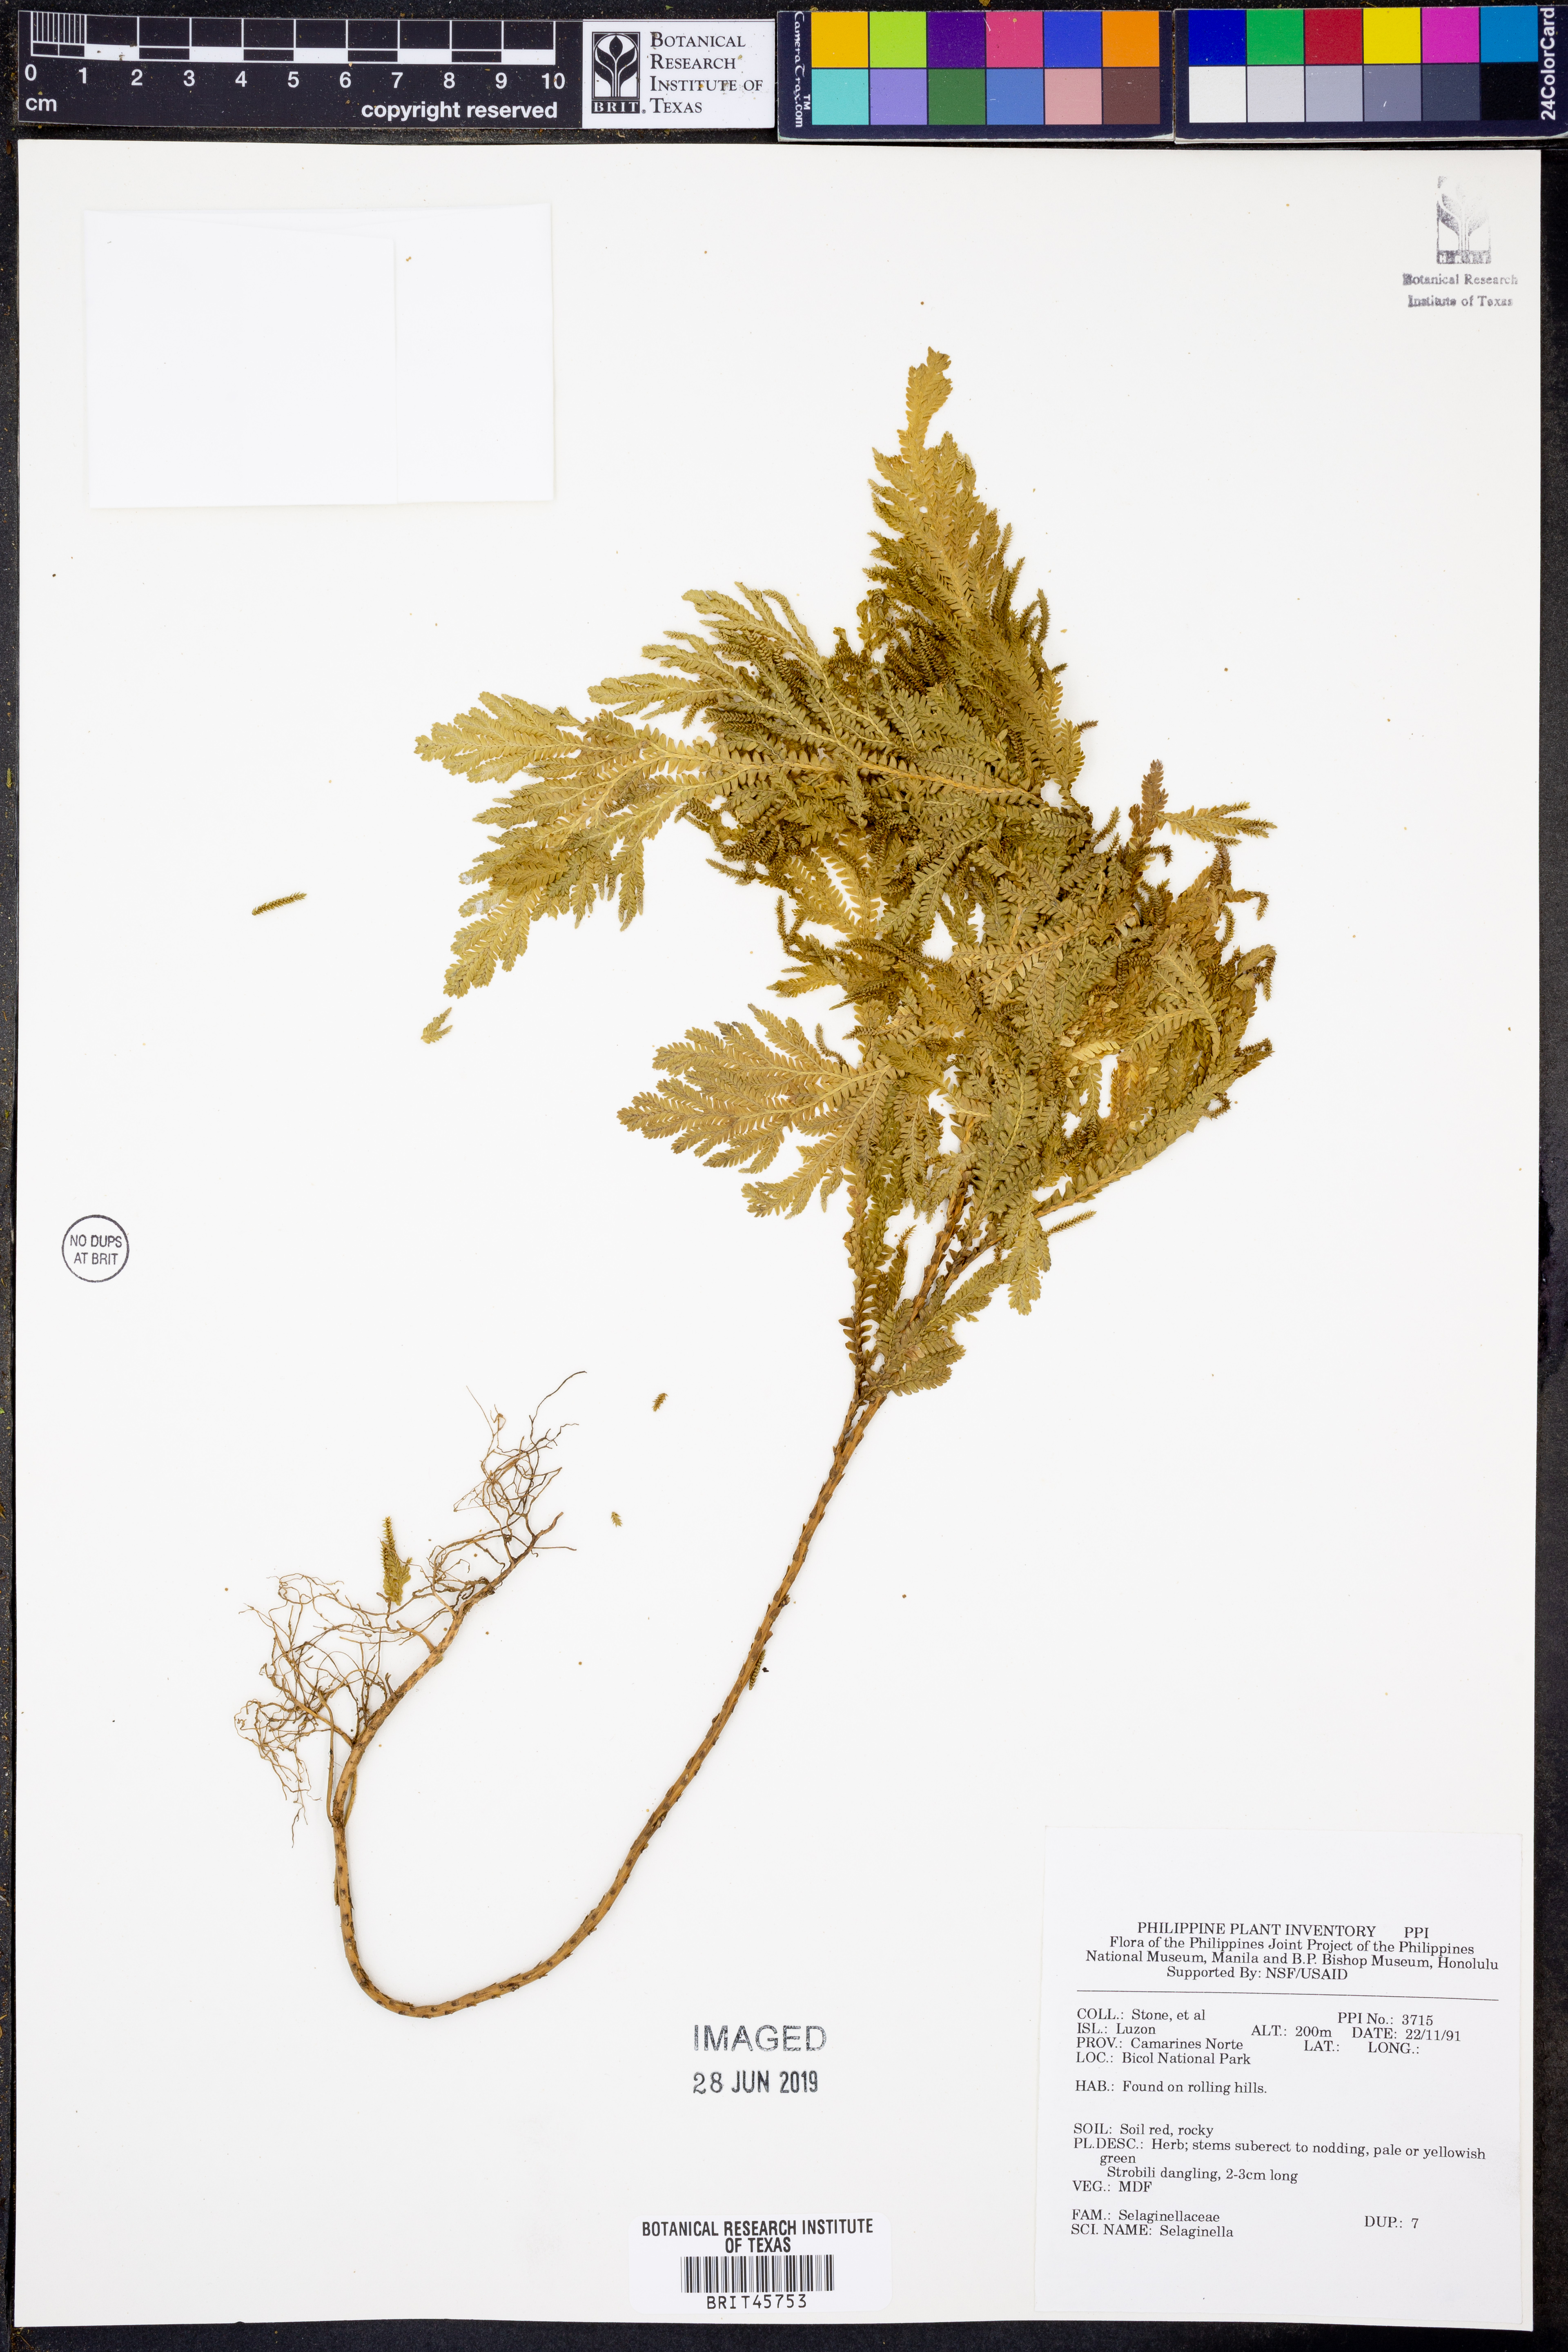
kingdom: Plantae
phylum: Tracheophyta
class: Lycopodiopsida
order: Selaginellales
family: Selaginellaceae
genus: Selaginella
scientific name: Selaginella
